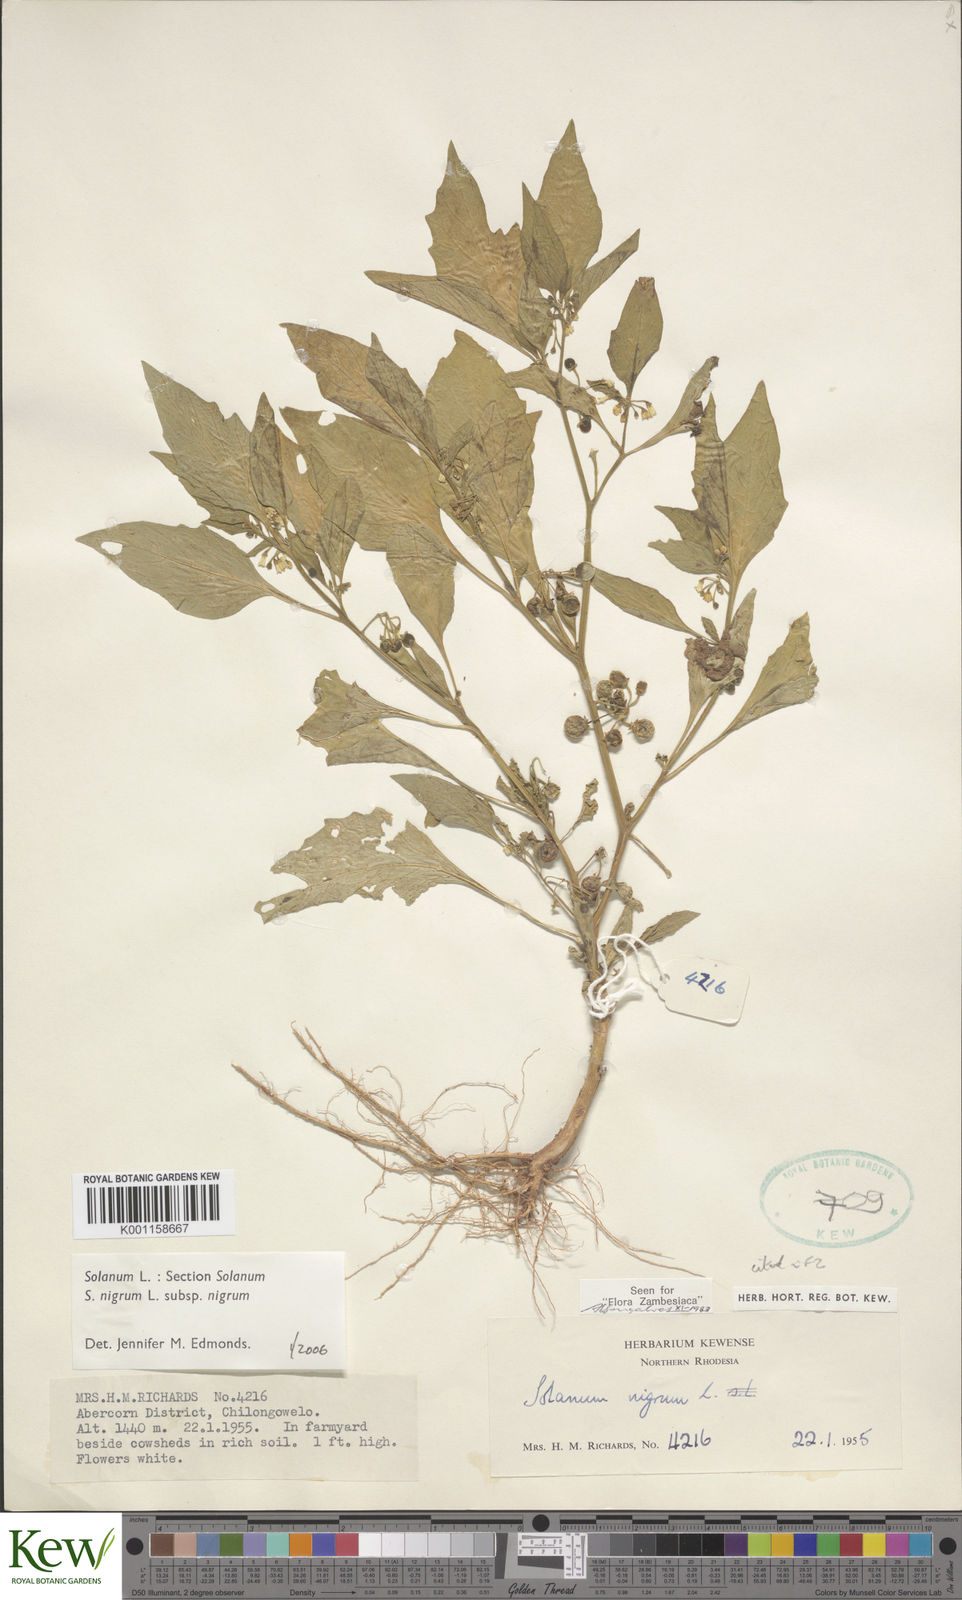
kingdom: Plantae
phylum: Tracheophyta
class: Magnoliopsida
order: Solanales
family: Solanaceae
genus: Solanum
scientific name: Solanum nigrum
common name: Black nightshade
